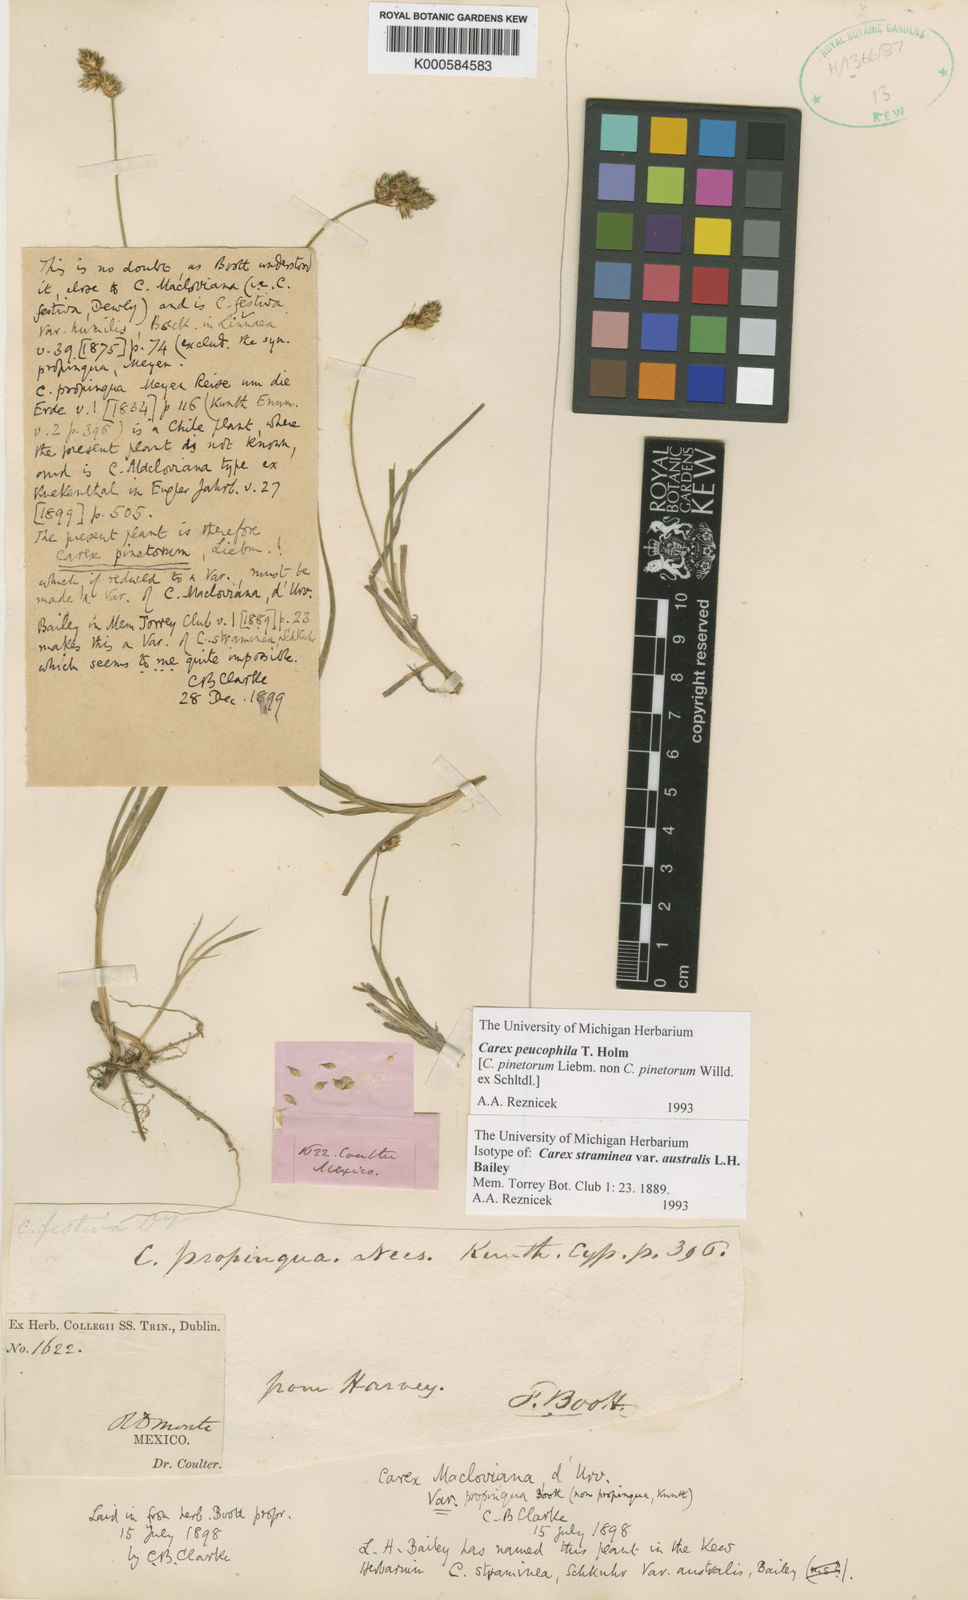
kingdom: Plantae
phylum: Tracheophyta
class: Liliopsida
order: Poales
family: Cyperaceae
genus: Carex
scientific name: Carex peucophila
